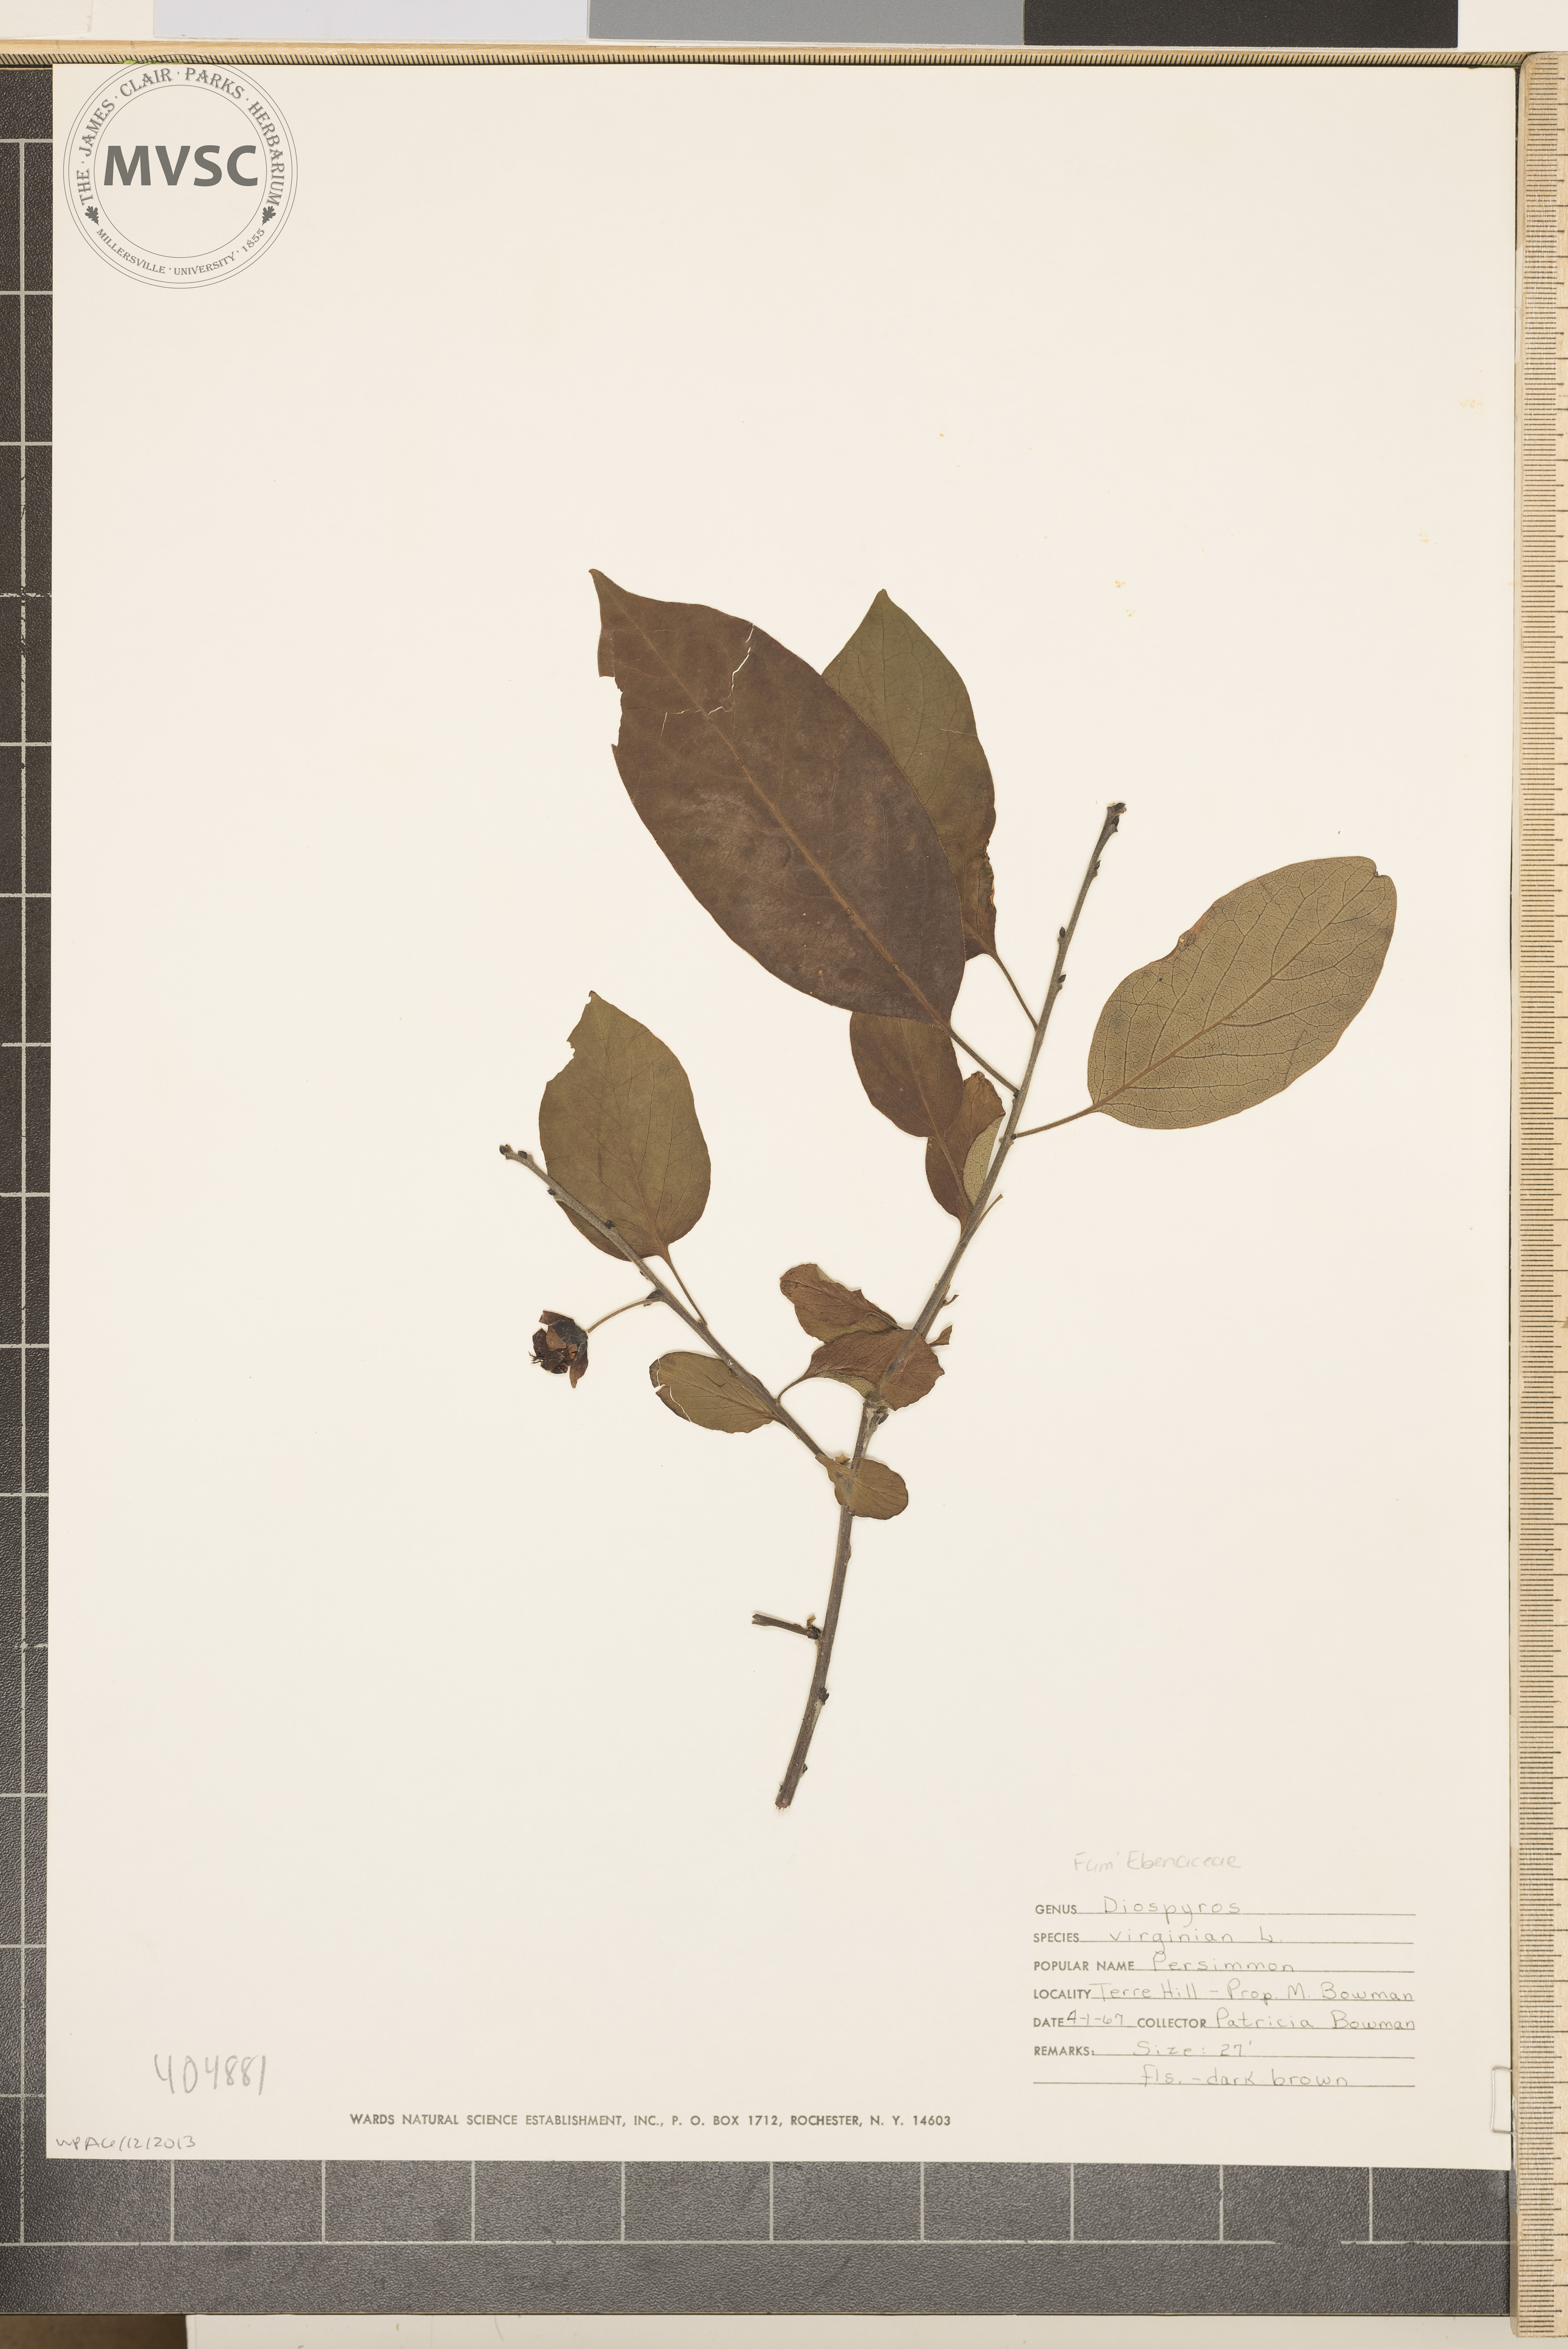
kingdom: Plantae
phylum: Tracheophyta
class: Magnoliopsida
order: Ericales
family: Ebenaceae
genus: Diospyros
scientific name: Diospyros virginiana
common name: Persimmon
